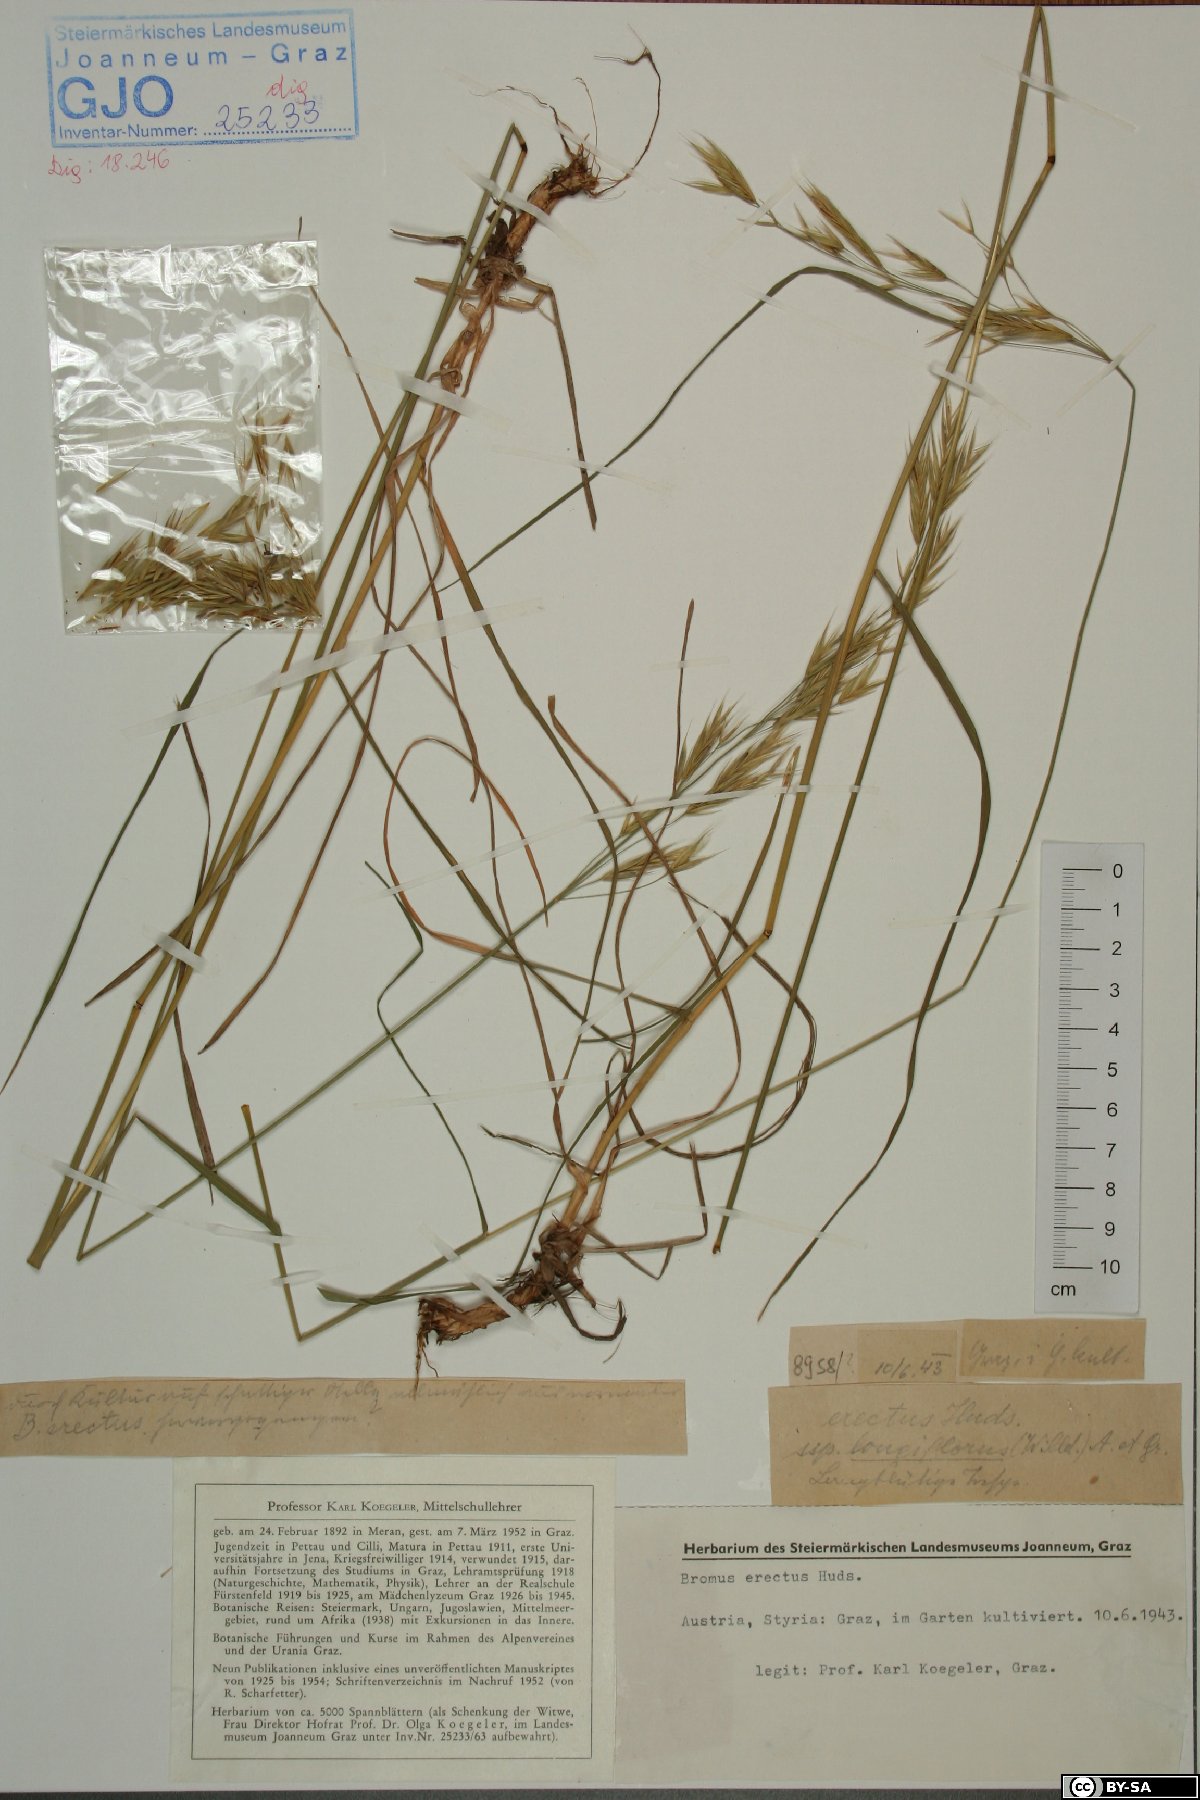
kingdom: Plantae
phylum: Tracheophyta
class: Liliopsida
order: Poales
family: Poaceae
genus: Bromus
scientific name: Bromus erectus
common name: Erect brome
